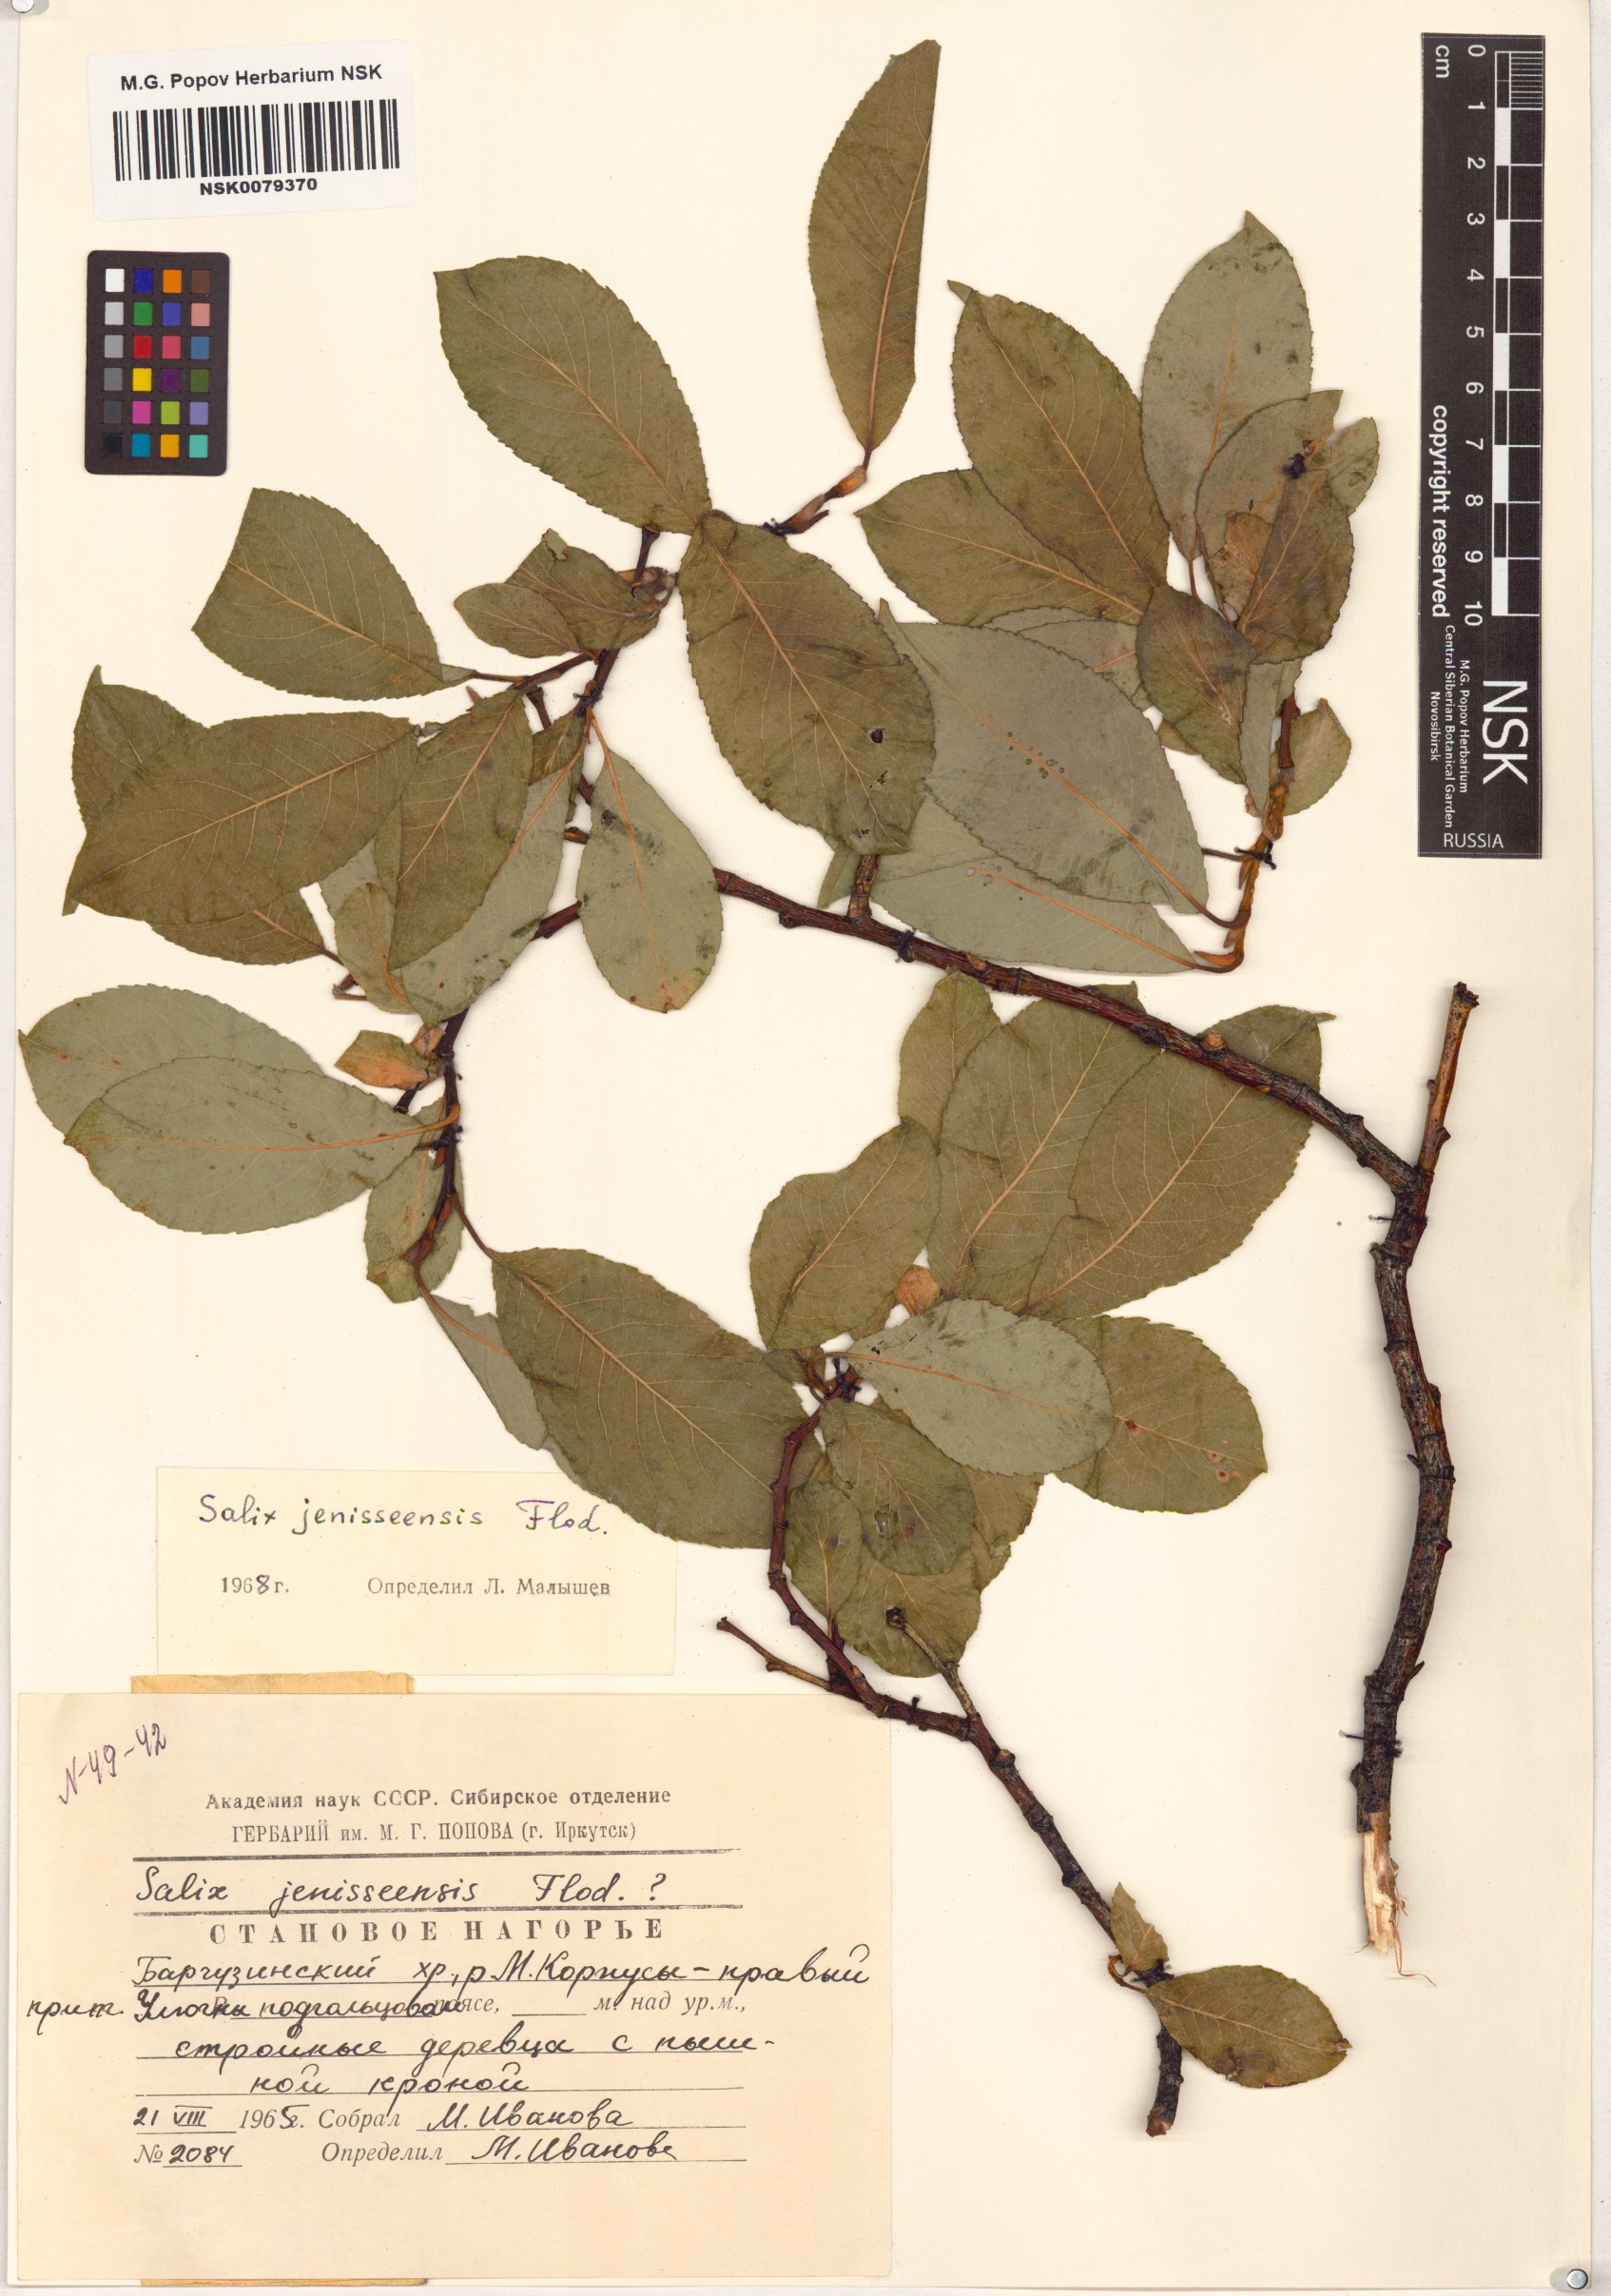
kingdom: Plantae
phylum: Tracheophyta
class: Magnoliopsida
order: Malpighiales
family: Salicaceae
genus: Salix
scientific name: Salix jenisseensis
